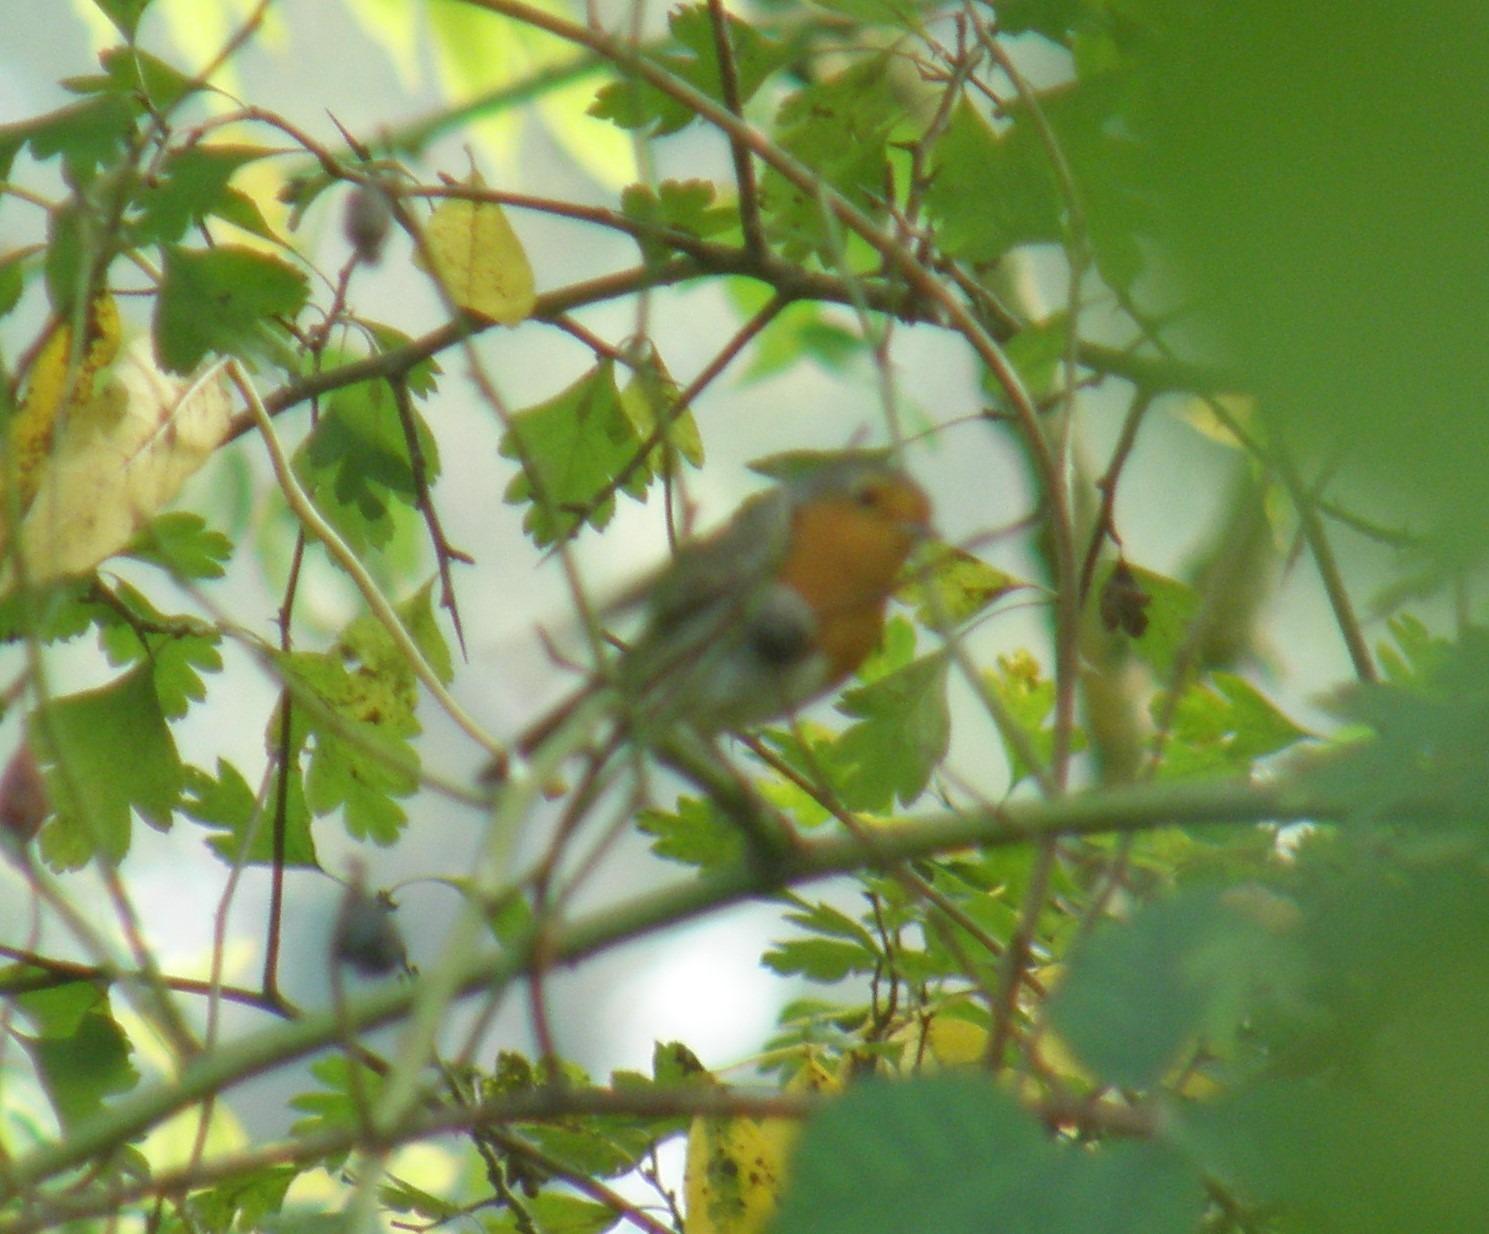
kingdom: Animalia
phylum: Chordata
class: Aves
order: Passeriformes
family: Muscicapidae
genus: Erithacus
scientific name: Erithacus rubecula
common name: Rødhals/rødkælk
